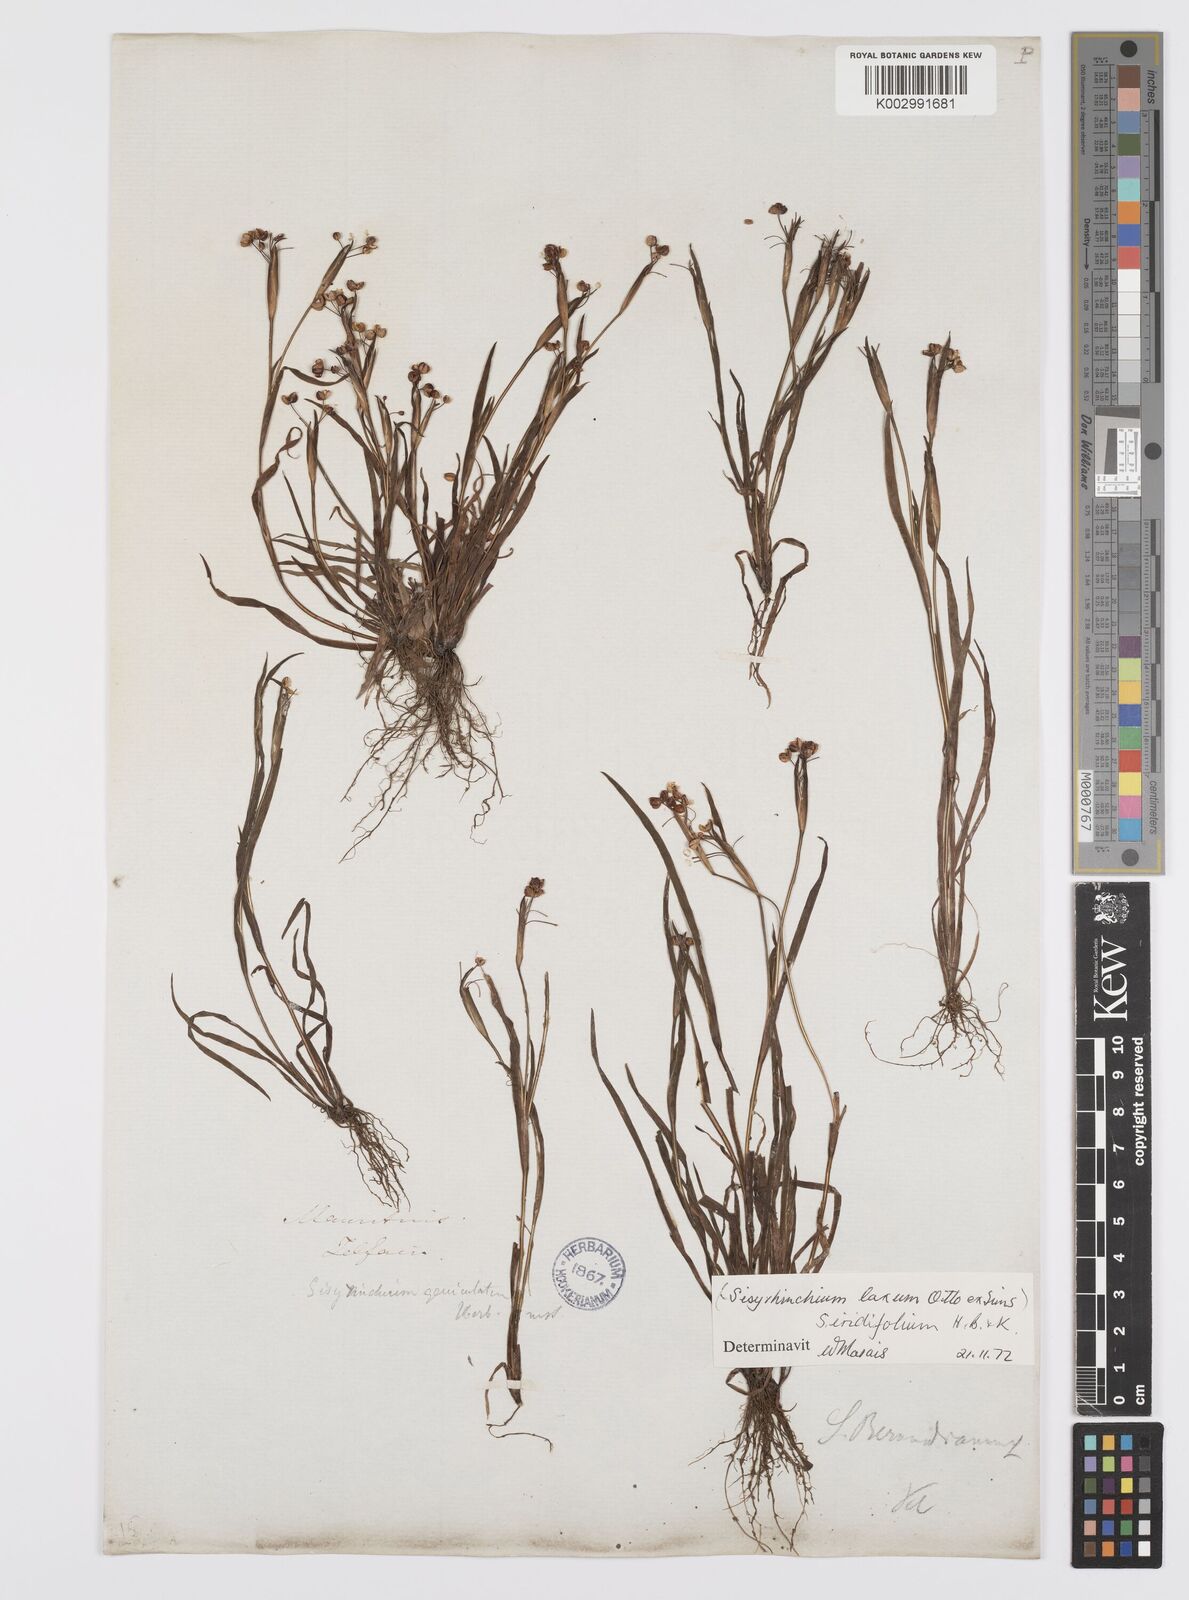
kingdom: Plantae
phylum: Tracheophyta
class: Liliopsida
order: Asparagales
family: Iridaceae
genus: Sisyrinchium
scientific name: Sisyrinchium micranthum
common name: Bermuda pigroot
